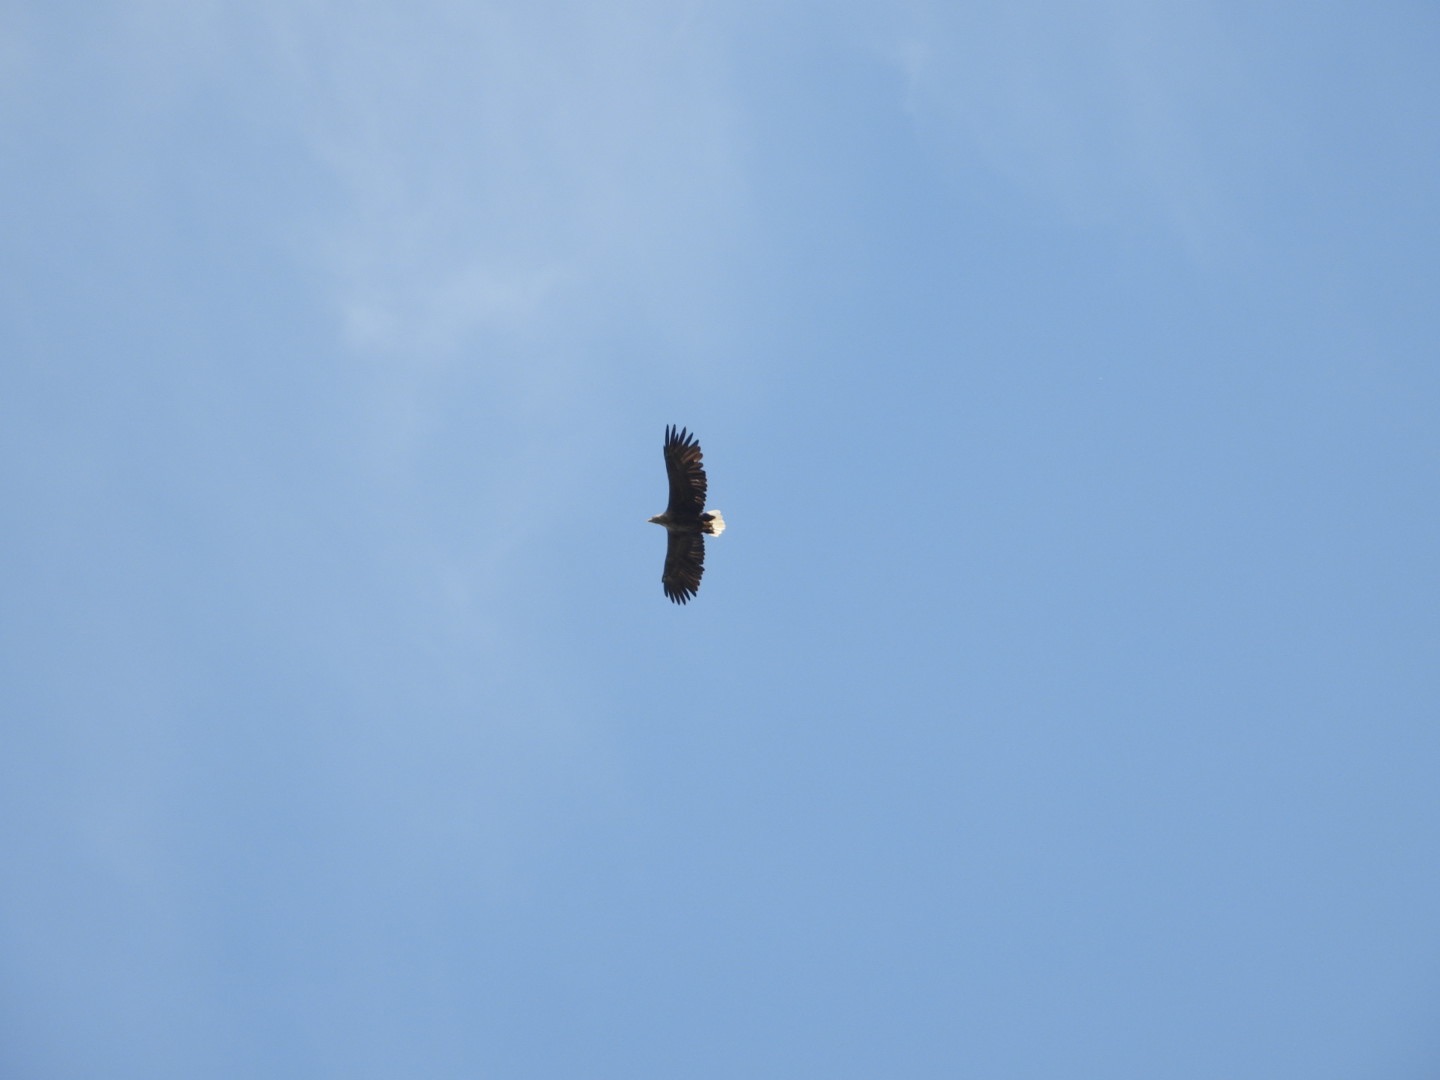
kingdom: Animalia
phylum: Chordata
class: Aves
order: Accipitriformes
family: Accipitridae
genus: Haliaeetus
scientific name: Haliaeetus albicilla
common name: Havørn
